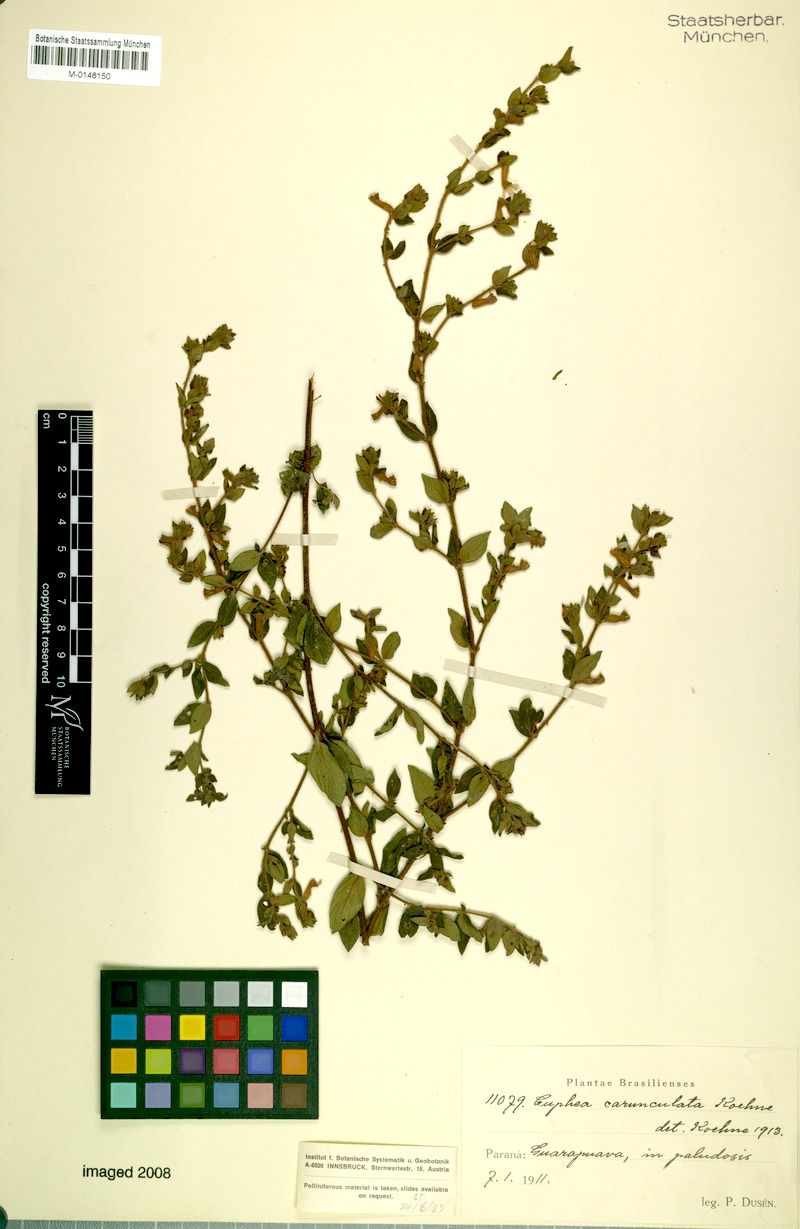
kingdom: Plantae
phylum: Tracheophyta
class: Magnoliopsida
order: Myrtales
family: Lythraceae
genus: Cuphea
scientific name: Cuphea urbaniana
